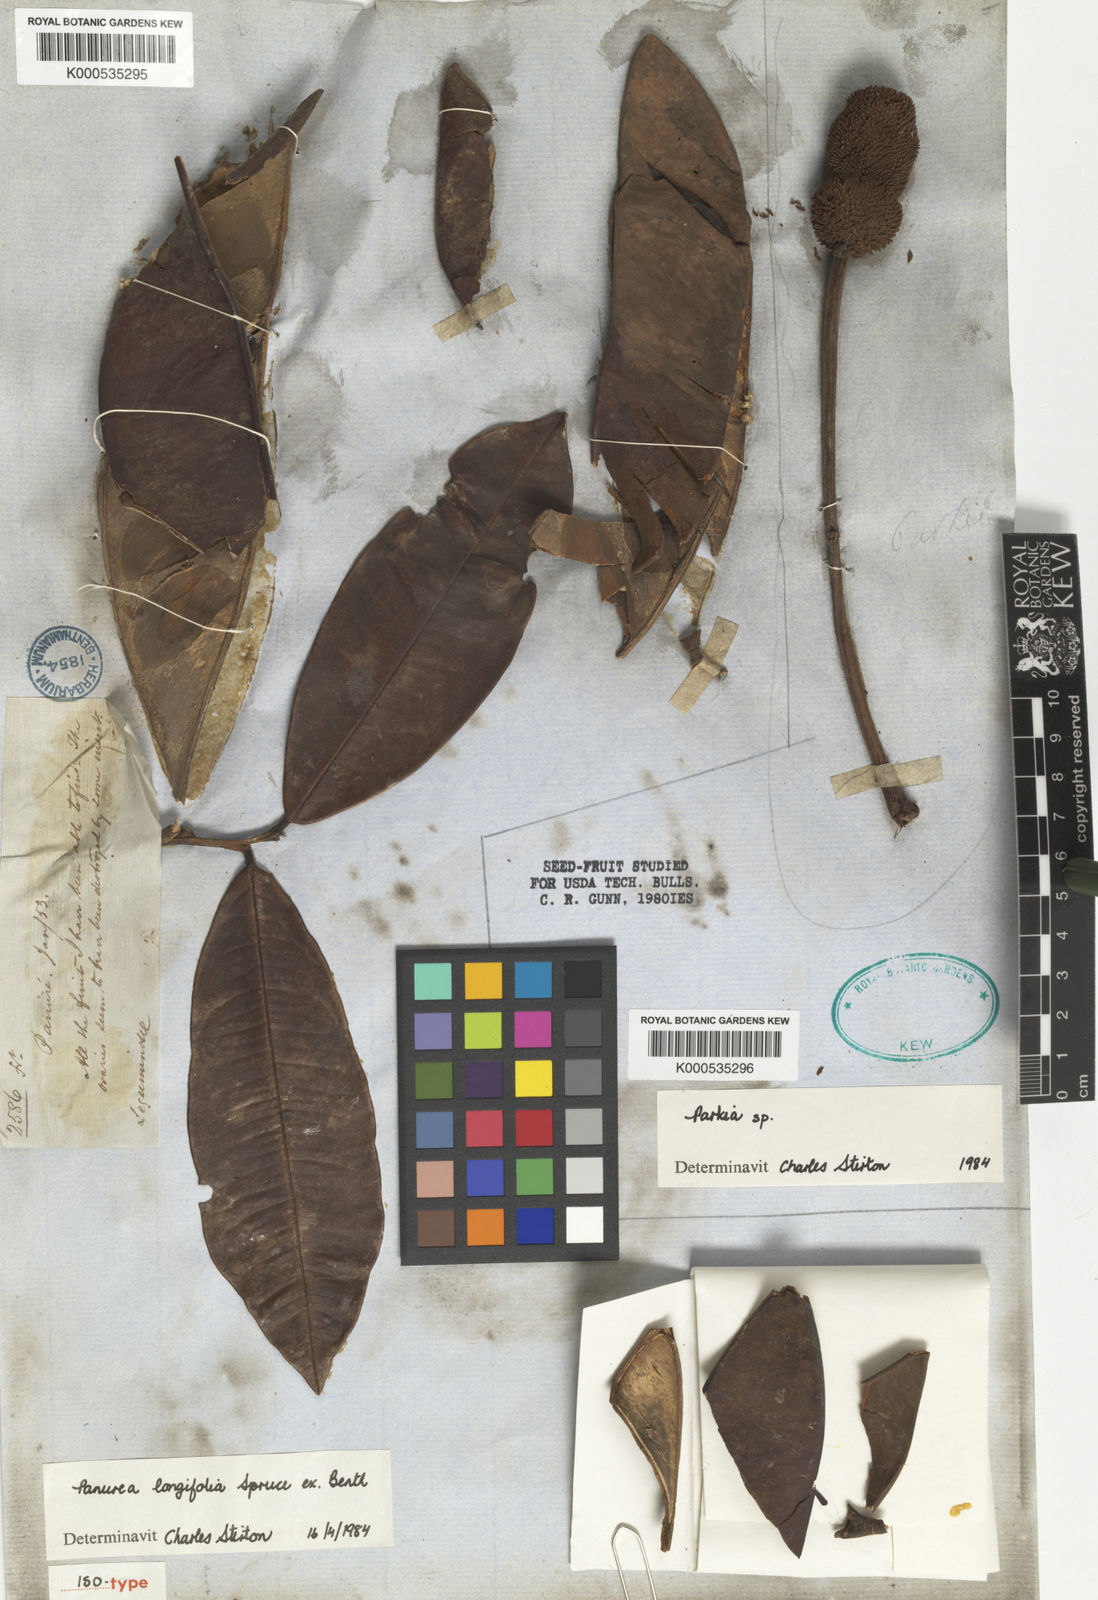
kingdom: Plantae
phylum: Tracheophyta
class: Magnoliopsida
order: Fabales
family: Fabaceae
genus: Panurea
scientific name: Panurea longifolia
